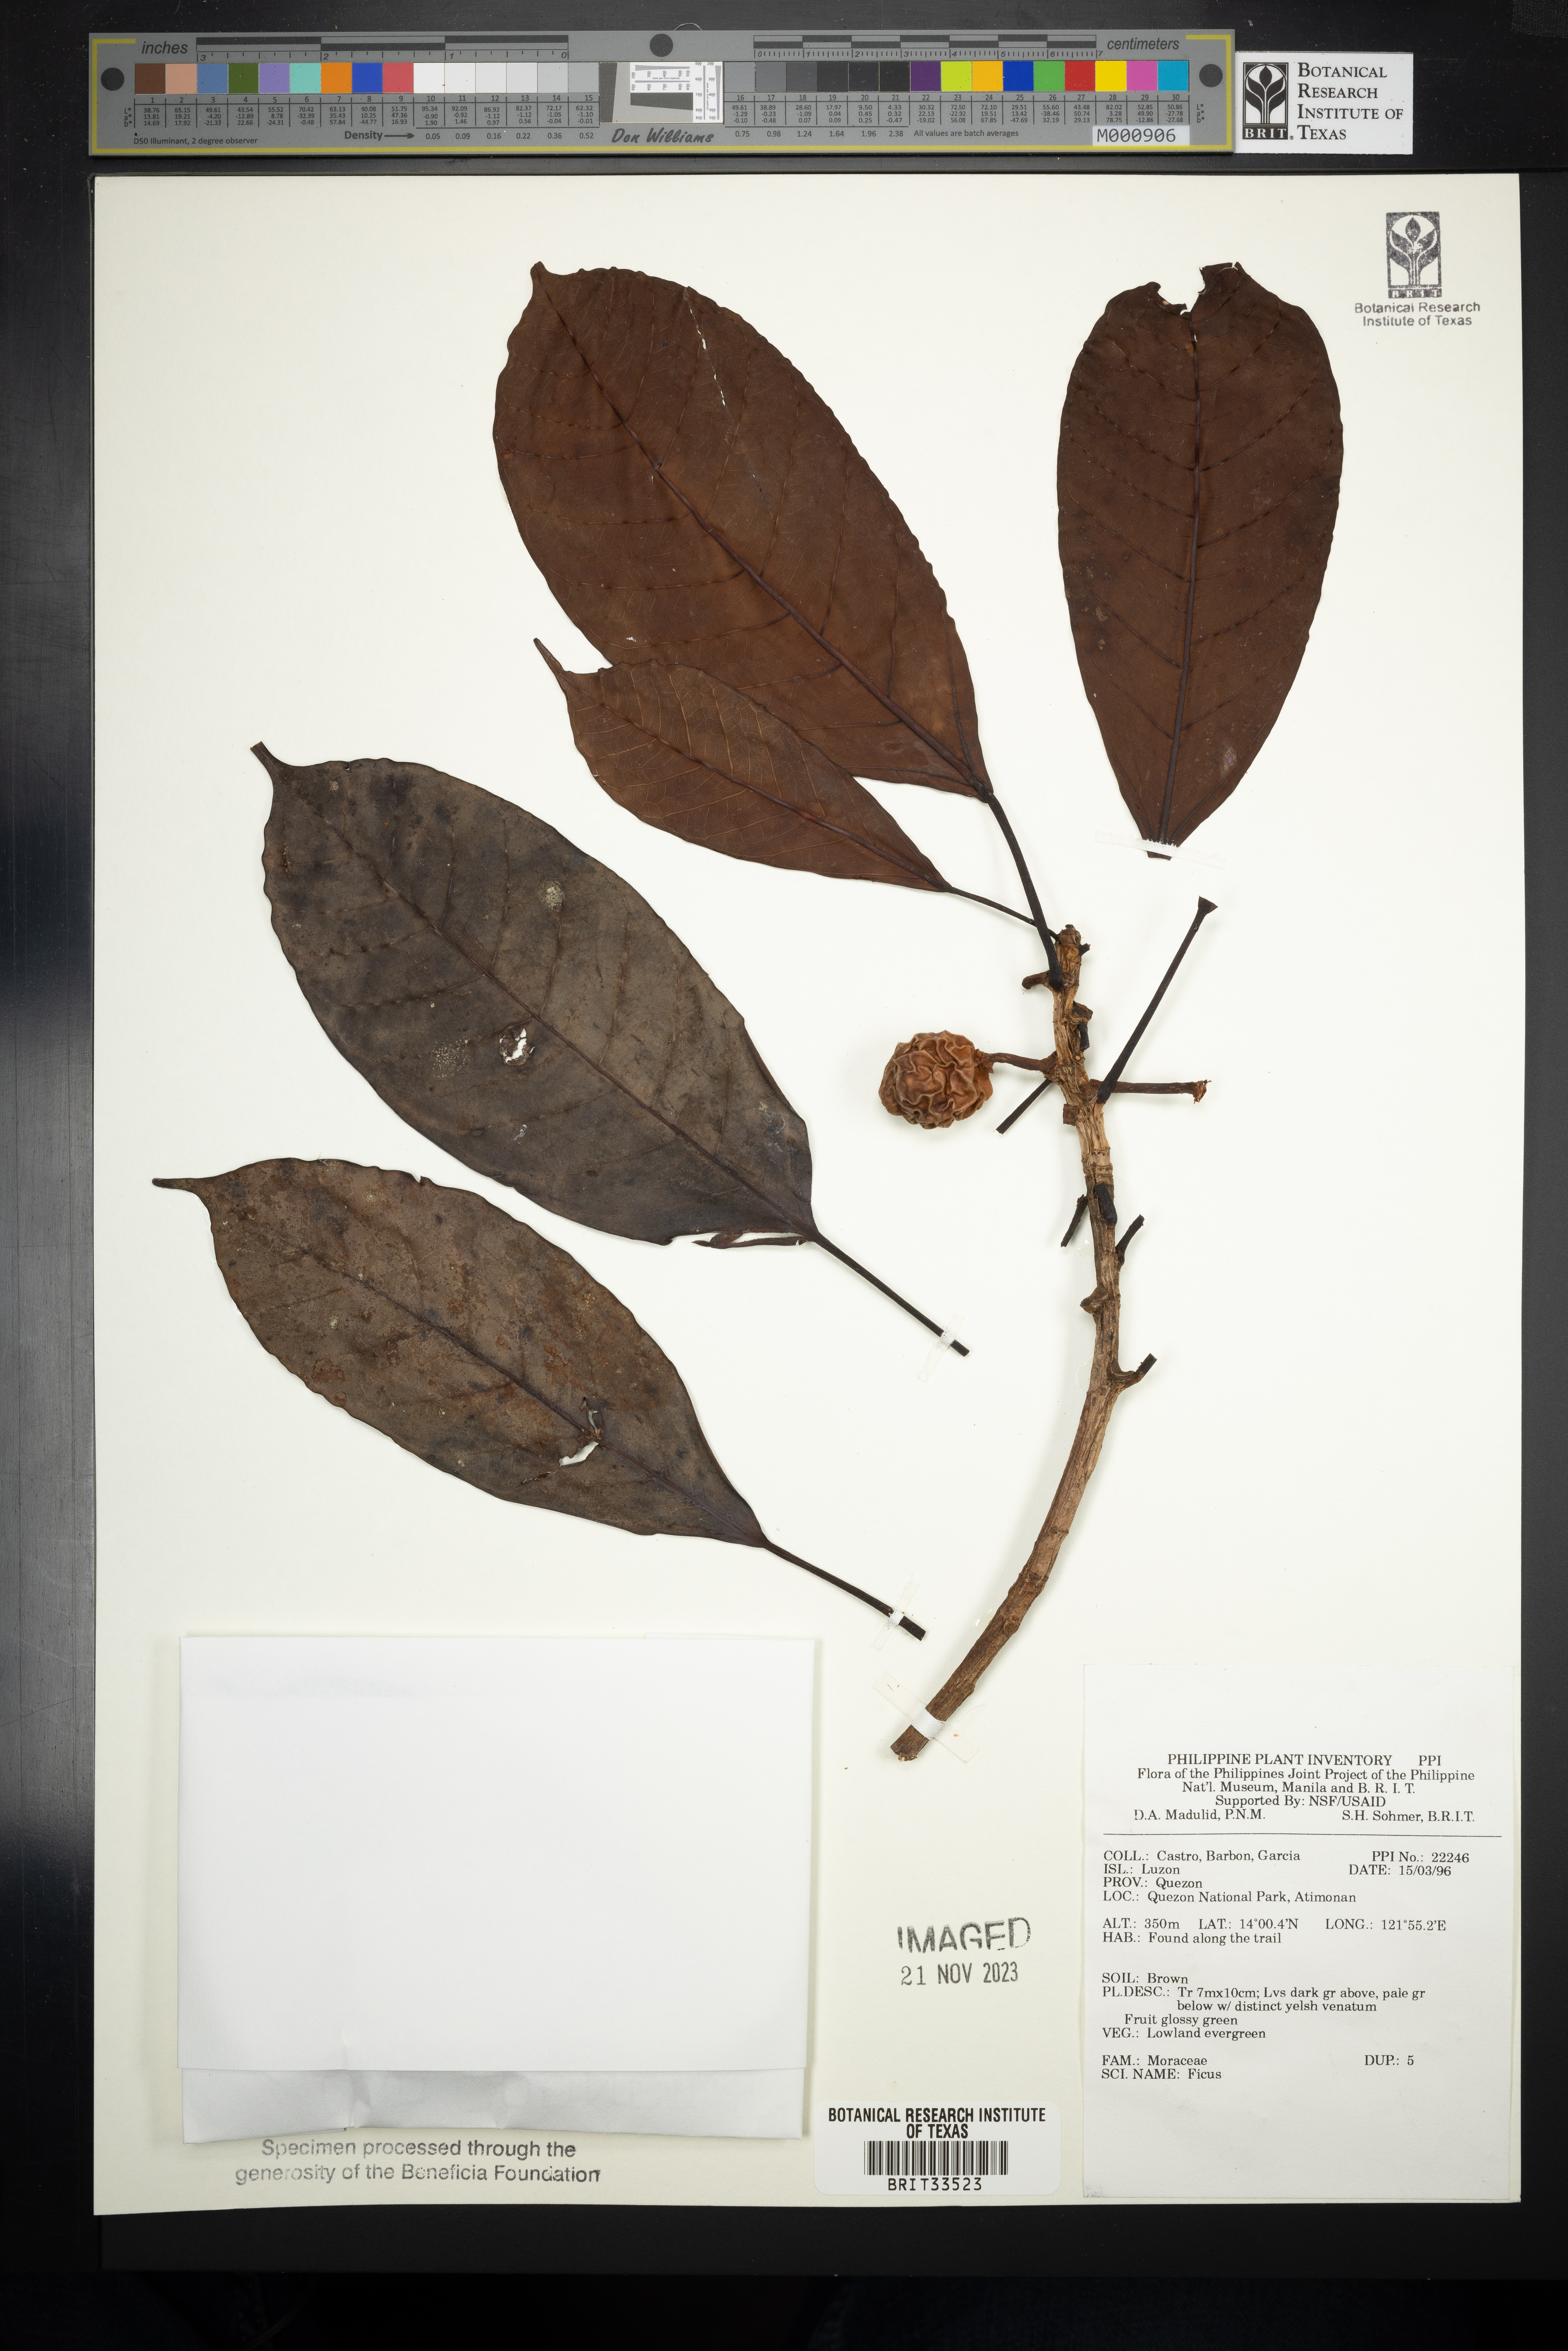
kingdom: Plantae
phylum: Tracheophyta
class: Magnoliopsida
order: Rosales
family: Moraceae
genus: Ficus
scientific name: Ficus
